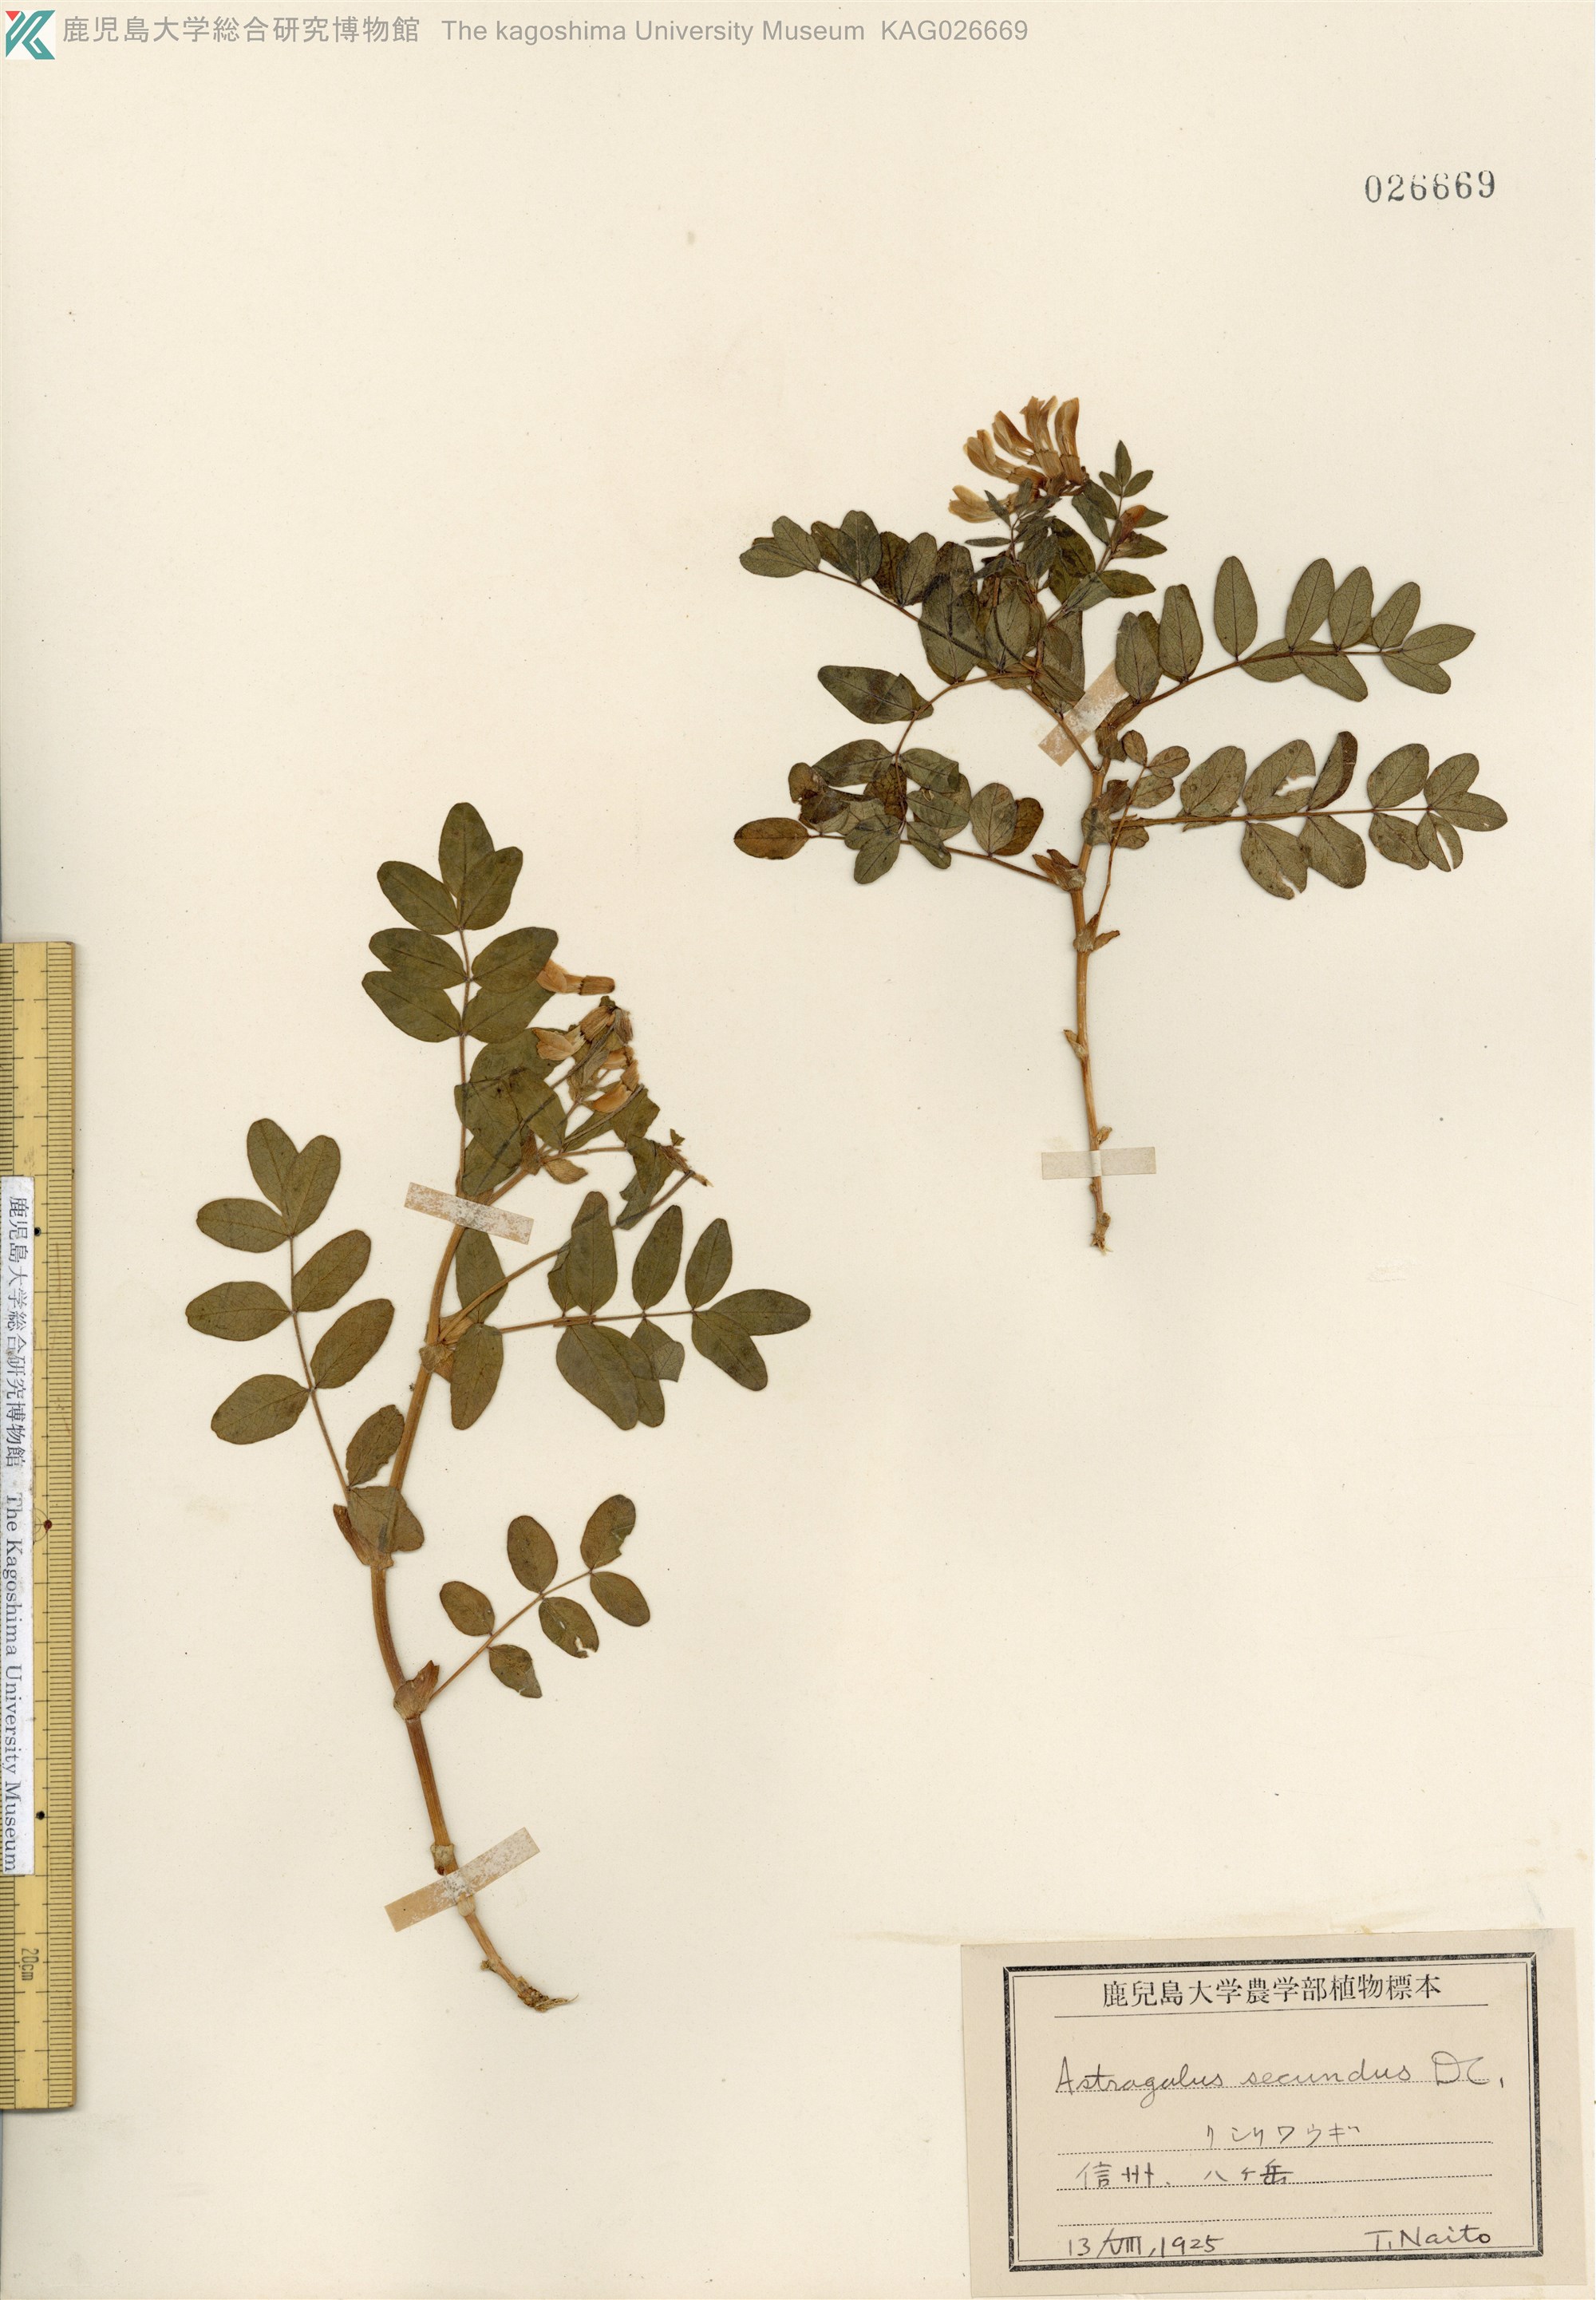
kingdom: Plantae
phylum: Tracheophyta
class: Magnoliopsida
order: Fabales
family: Fabaceae
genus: Astragalus
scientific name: Astragalus frigidus
